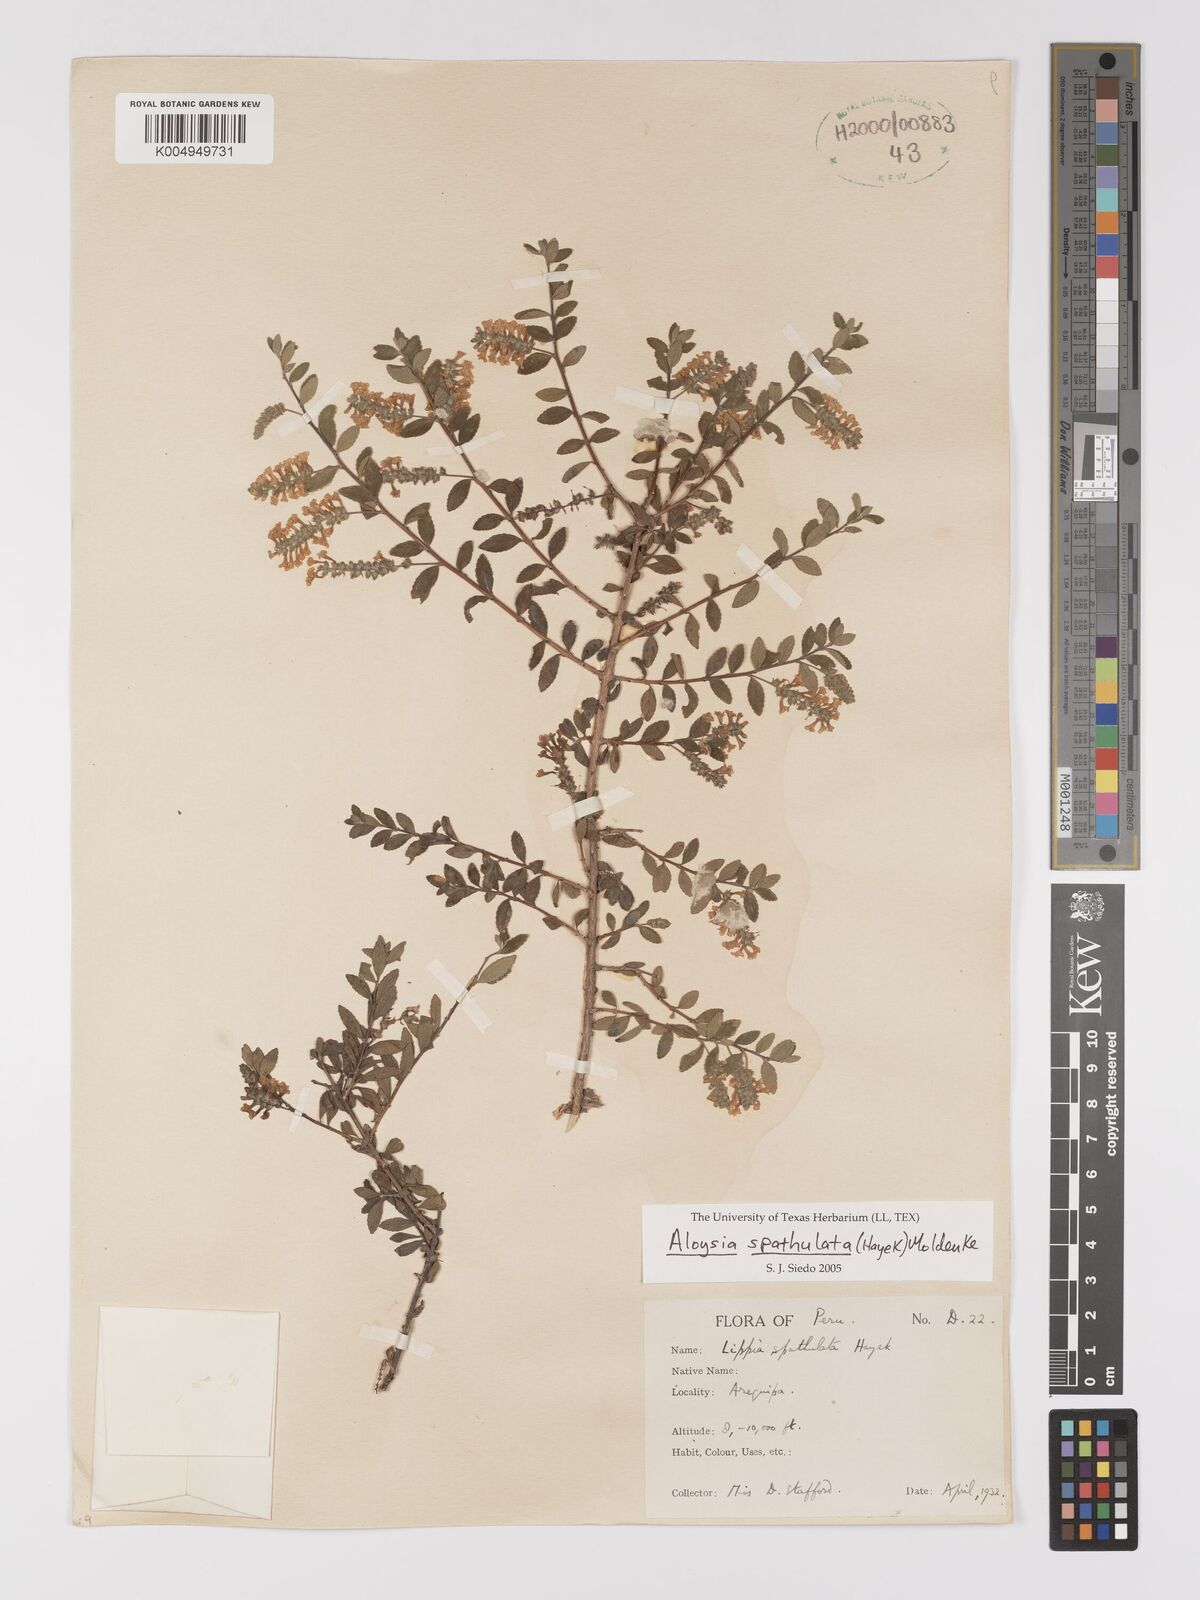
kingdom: Plantae
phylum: Tracheophyta
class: Magnoliopsida
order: Lamiales
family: Verbenaceae
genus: Aloysia
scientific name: Aloysia spathulata
